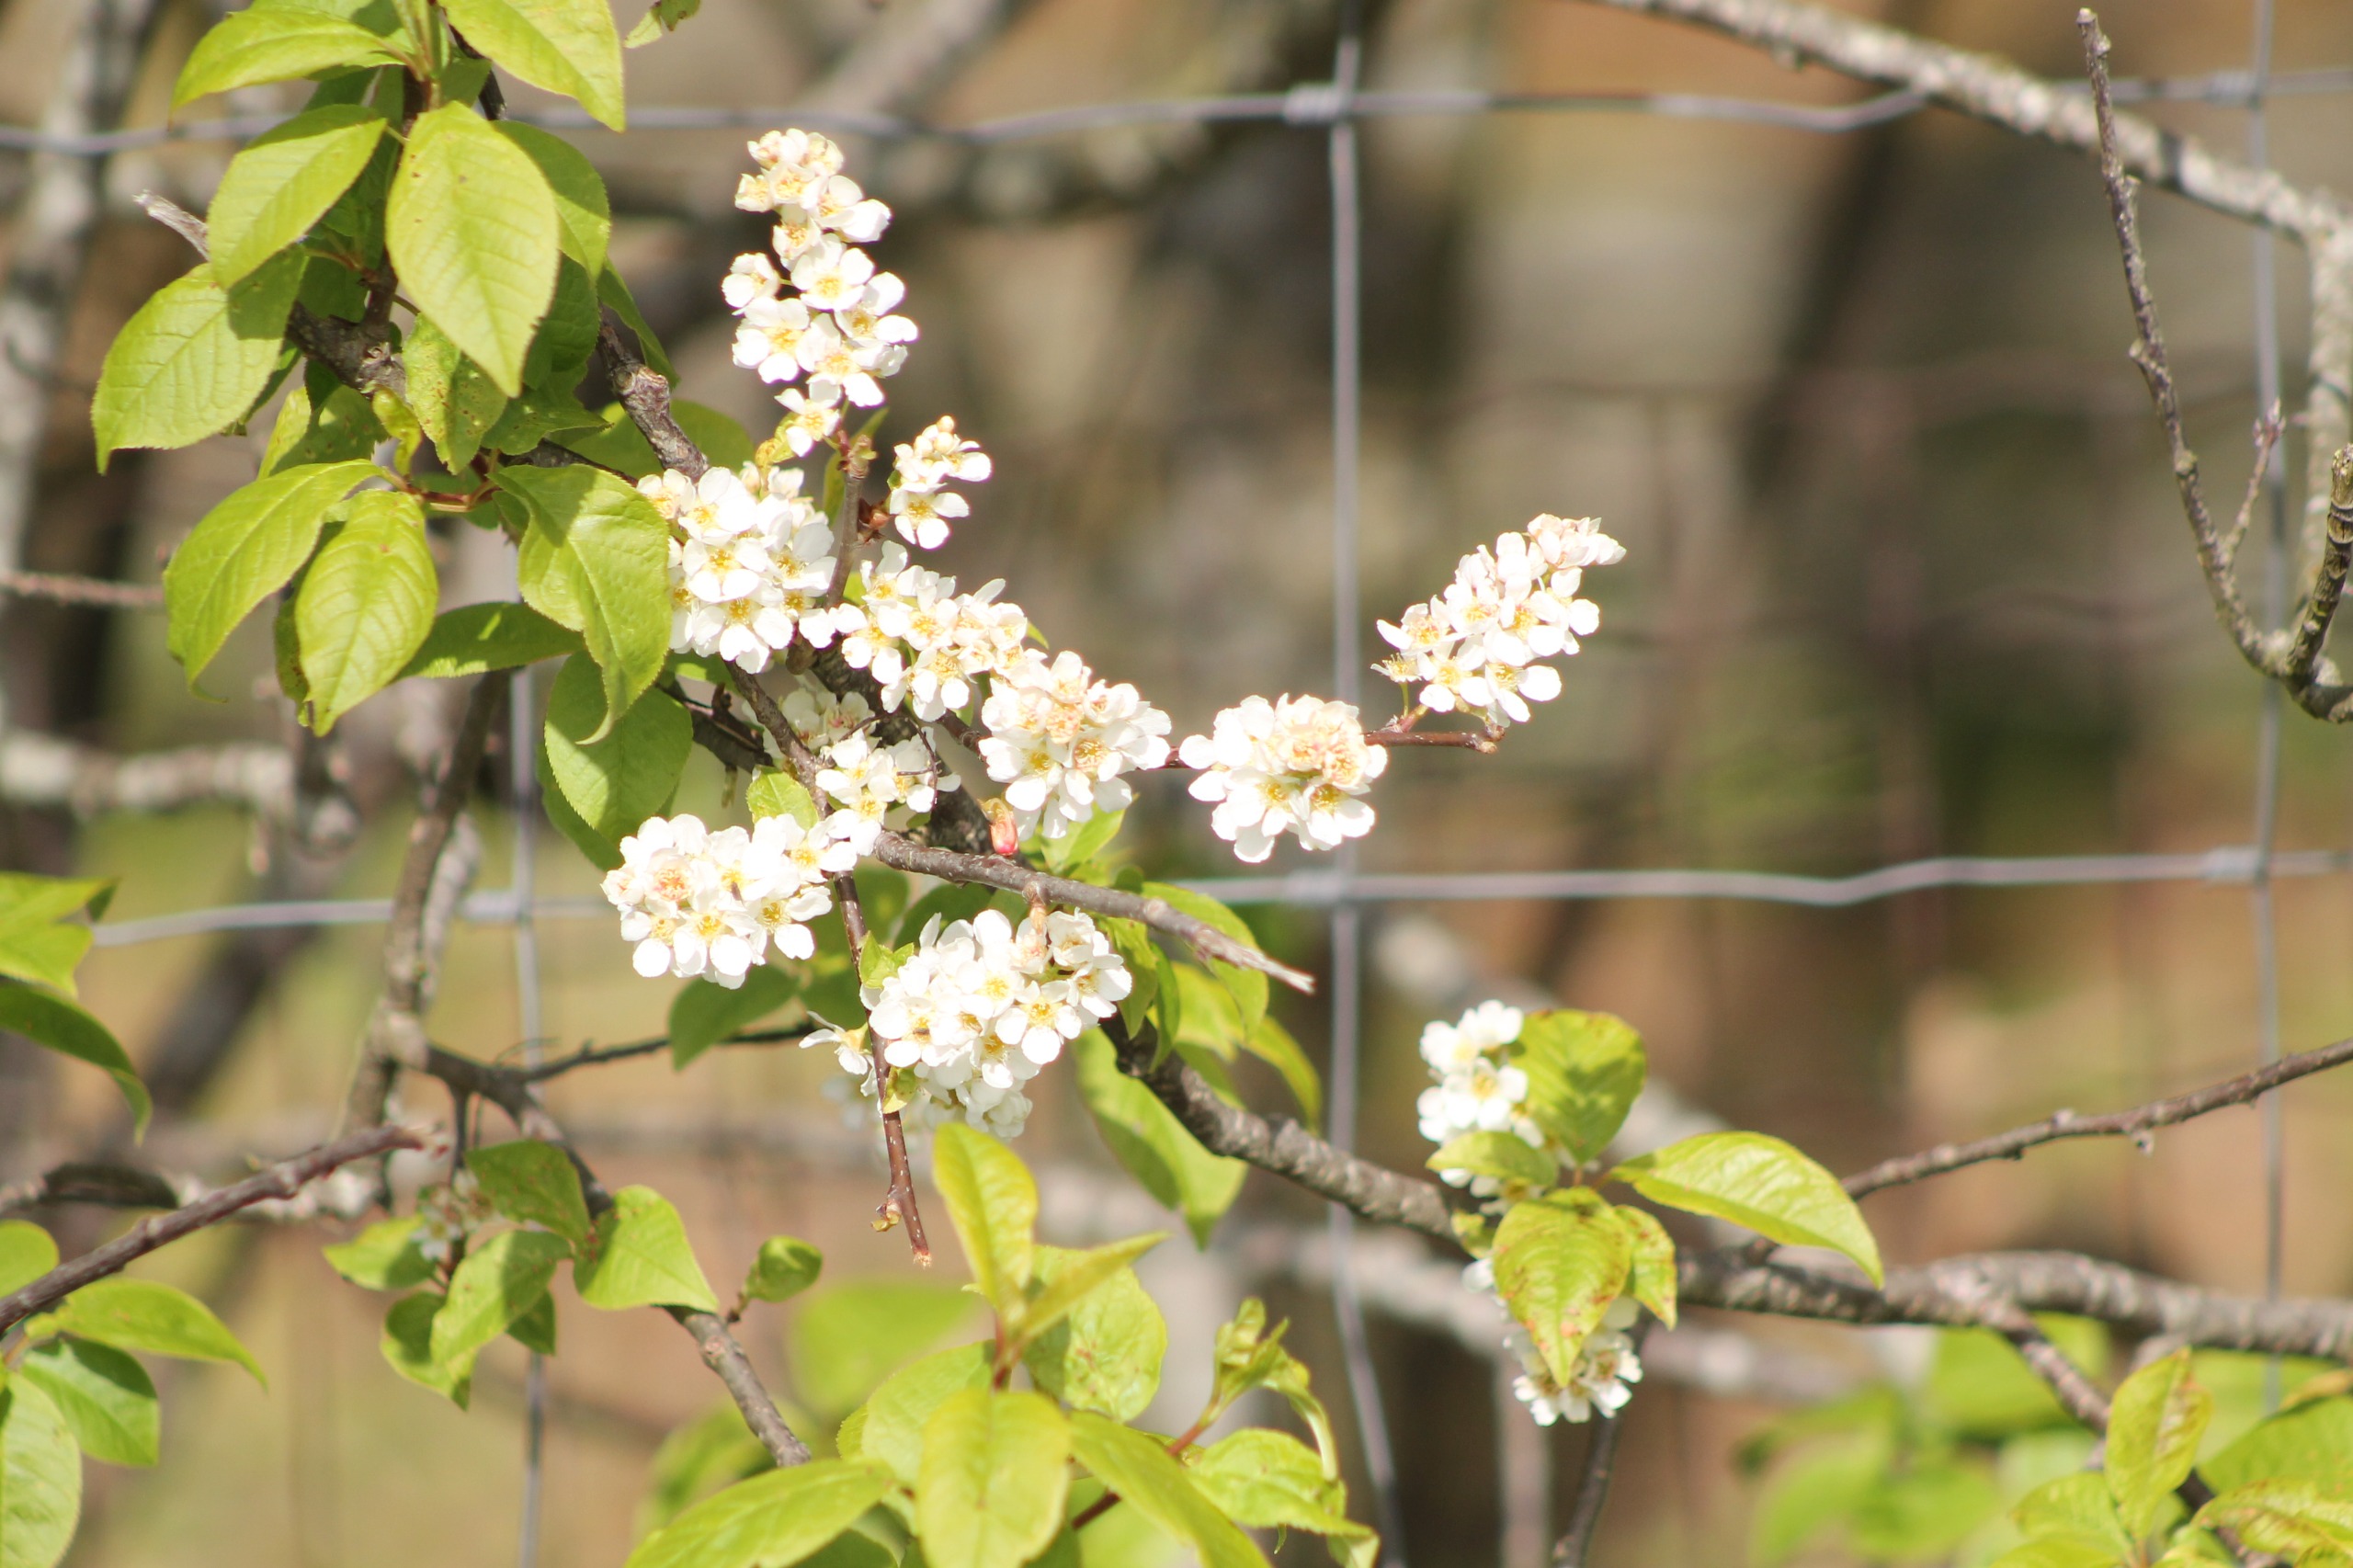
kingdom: Plantae
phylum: Tracheophyta
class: Magnoliopsida
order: Rosales
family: Rosaceae
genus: Prunus
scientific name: Prunus padus
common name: Almindelig hæg
